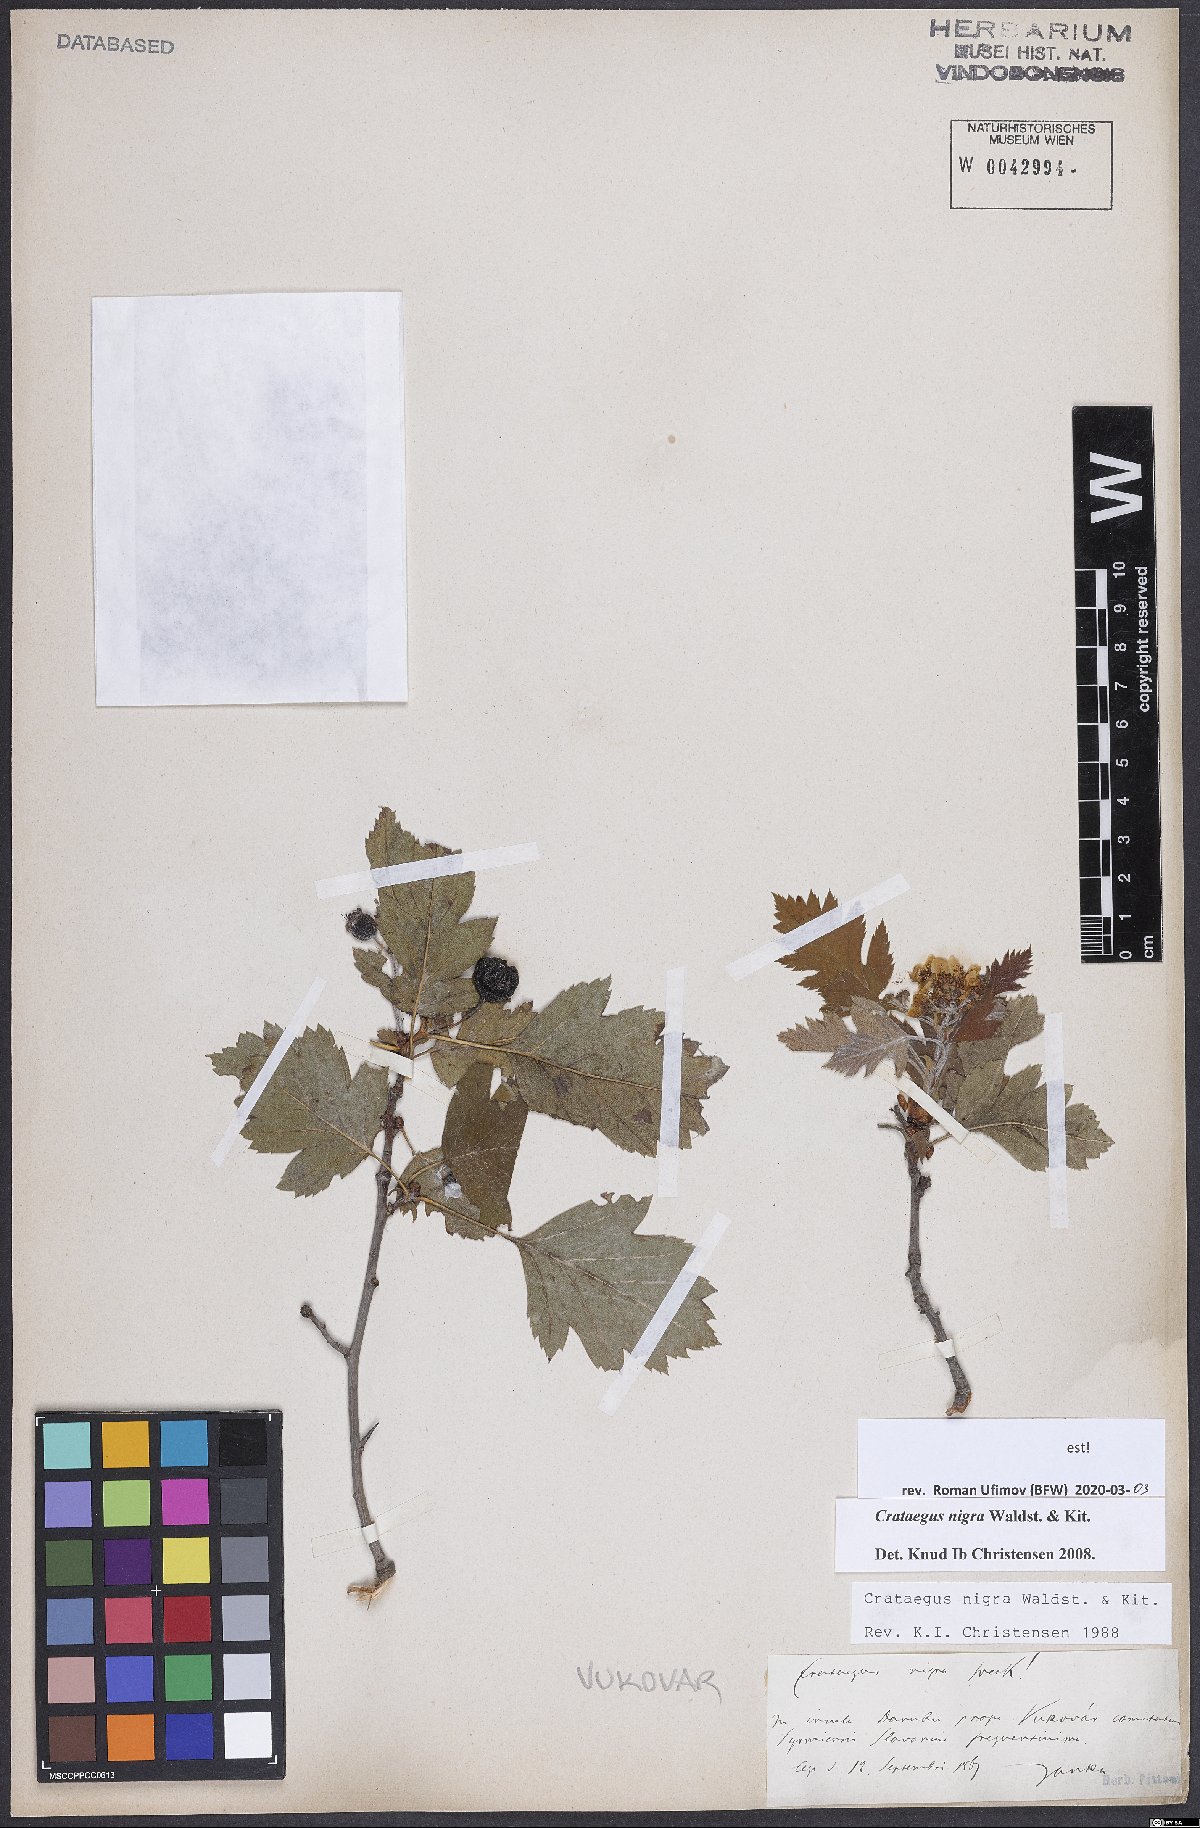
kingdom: Plantae
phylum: Tracheophyta
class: Magnoliopsida
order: Rosales
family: Rosaceae
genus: Crataegus
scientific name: Crataegus nigra
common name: Hungarian thorn
